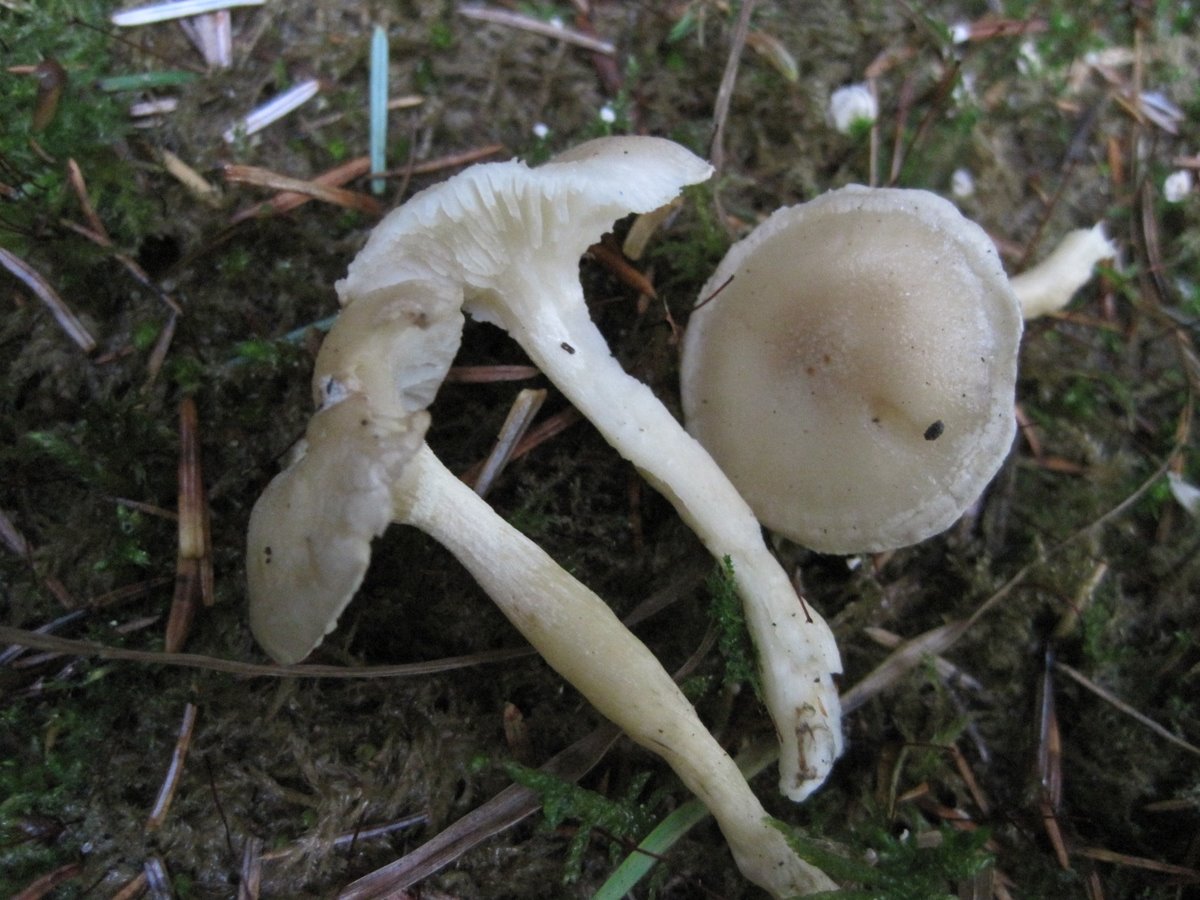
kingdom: Fungi
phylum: Basidiomycota
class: Agaricomycetes
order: Agaricales
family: Hygrophoraceae
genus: Hygrophorus
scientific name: Hygrophorus agathosmus
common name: vellugtende sneglehat
